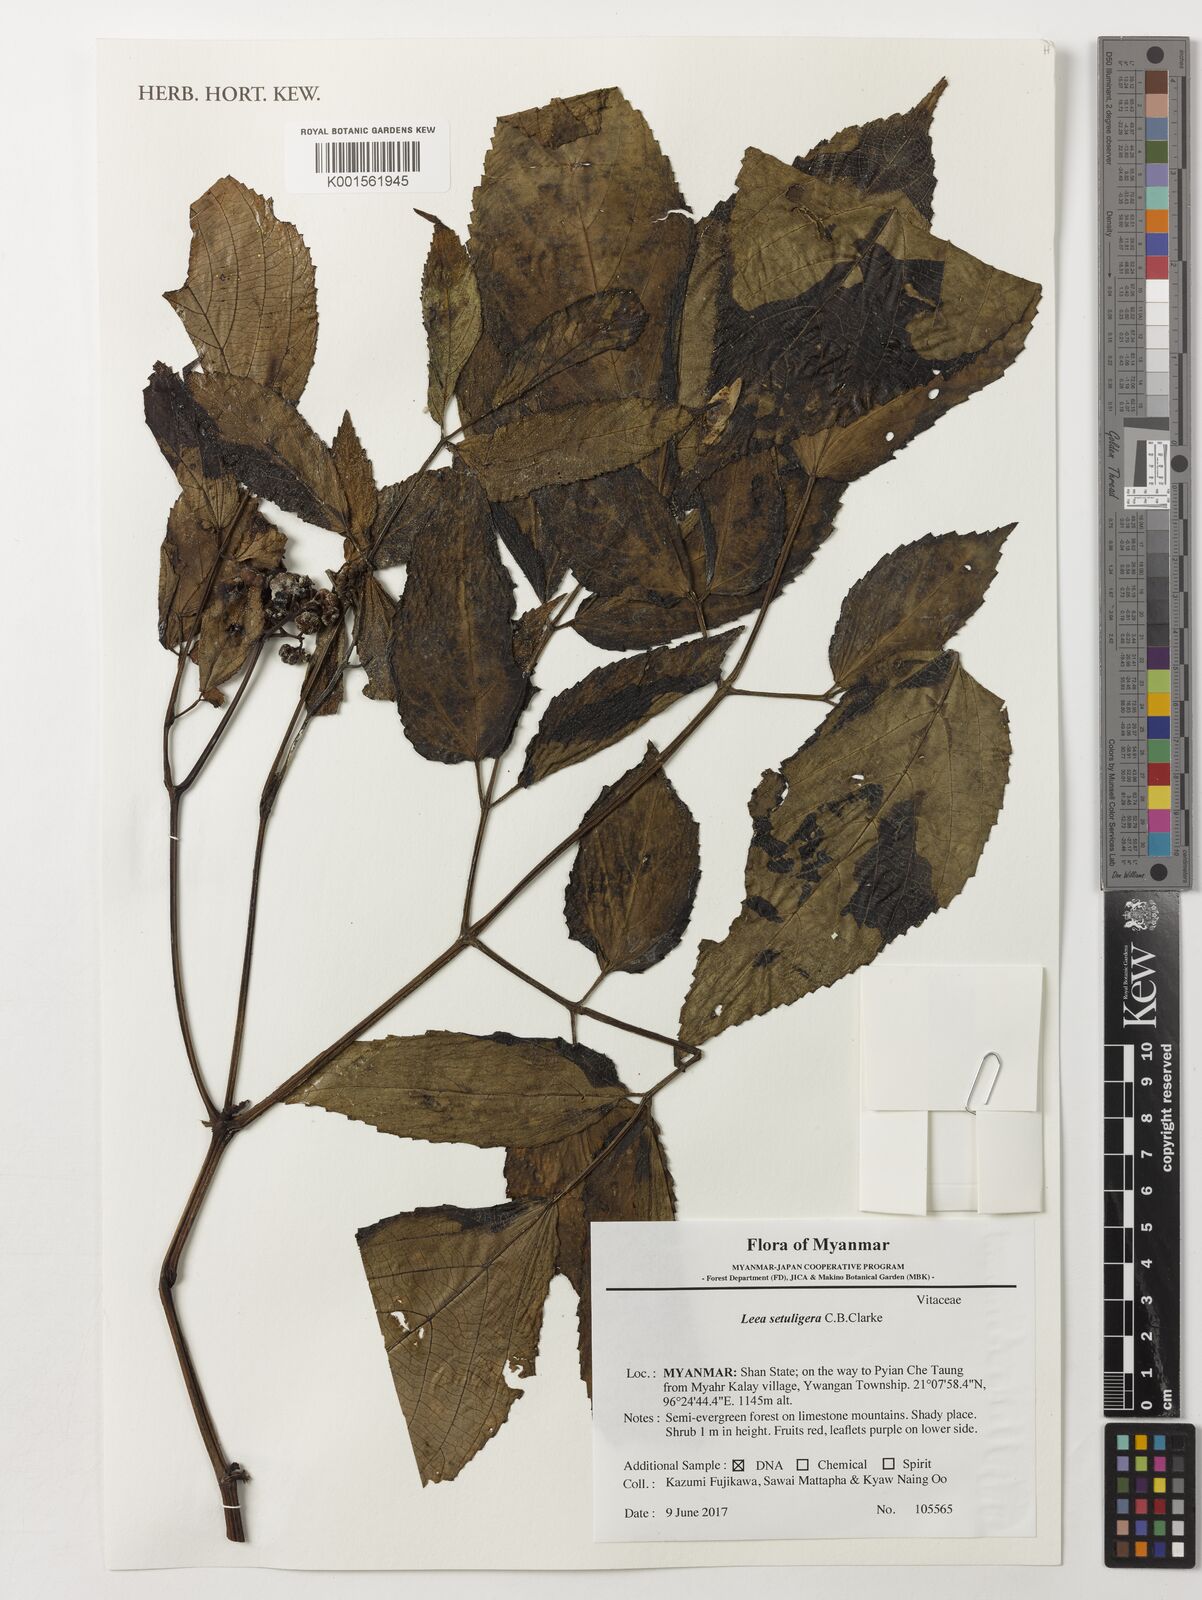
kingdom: Plantae
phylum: Tracheophyta
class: Magnoliopsida
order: Vitales
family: Vitaceae
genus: Leea
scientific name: Leea setuligera
